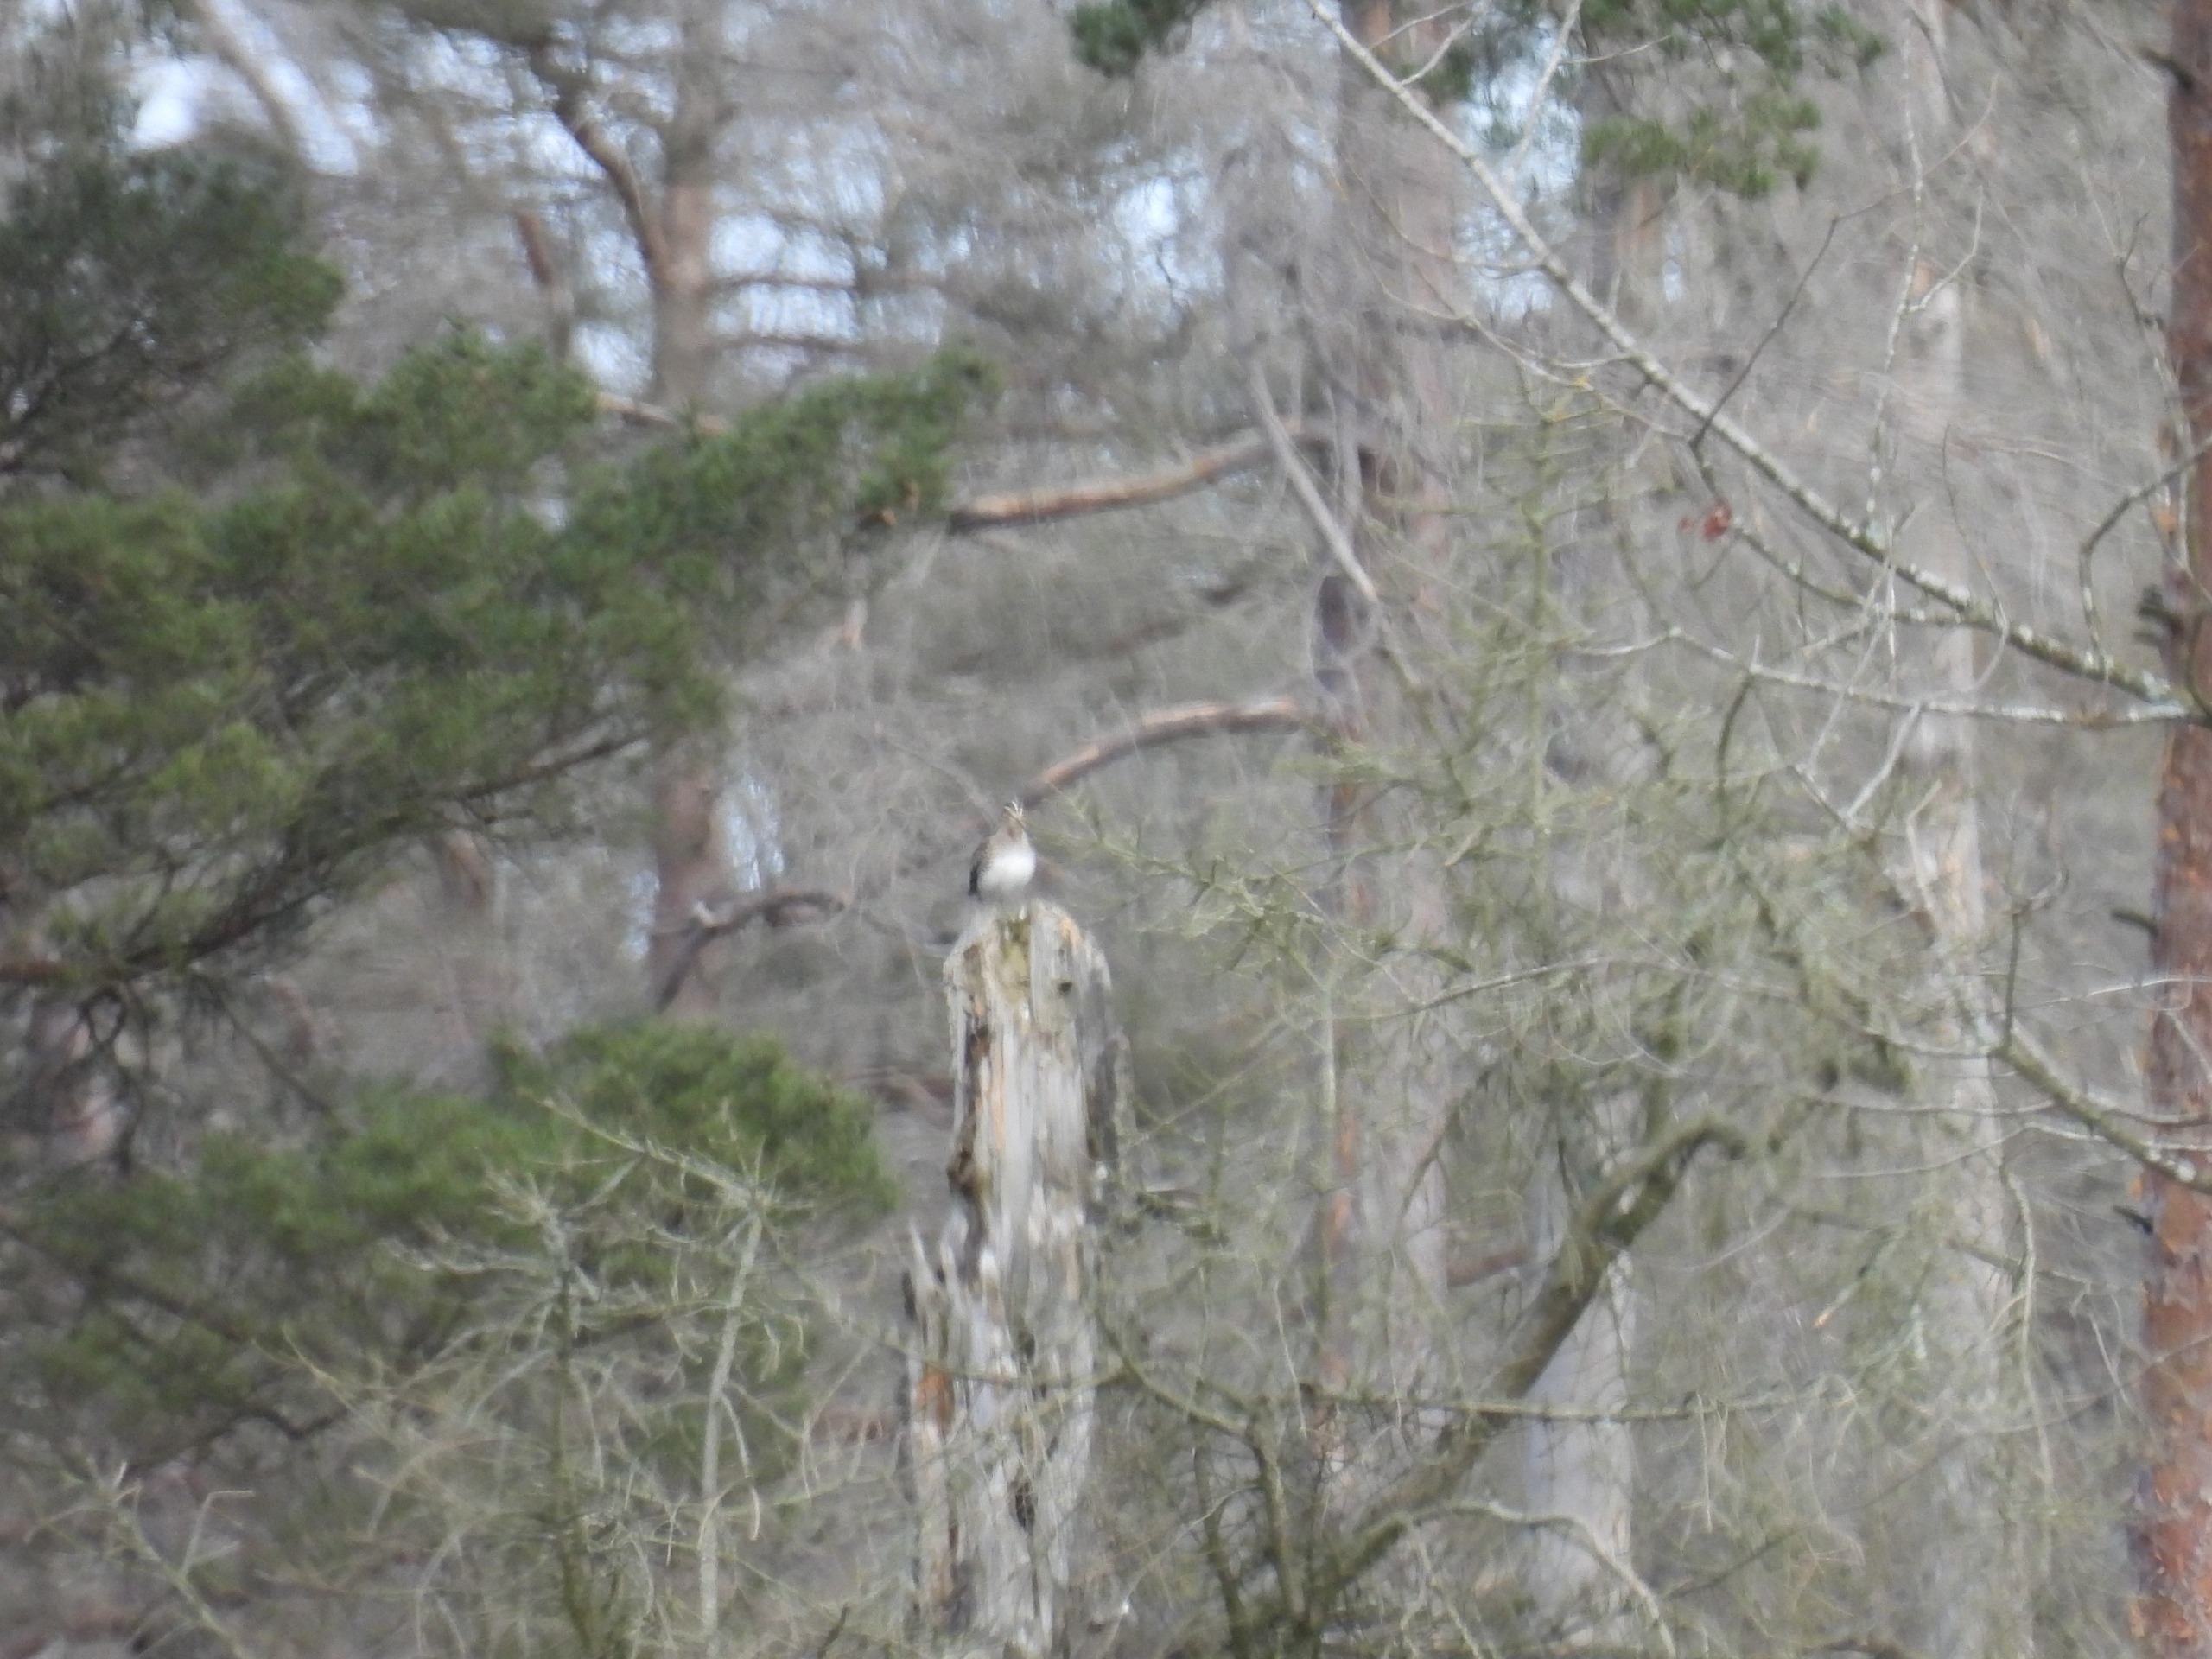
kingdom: Animalia
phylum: Chordata
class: Aves
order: Charadriiformes
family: Scolopacidae
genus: Gallinago
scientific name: Gallinago gallinago
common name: Dobbeltbekkasin
